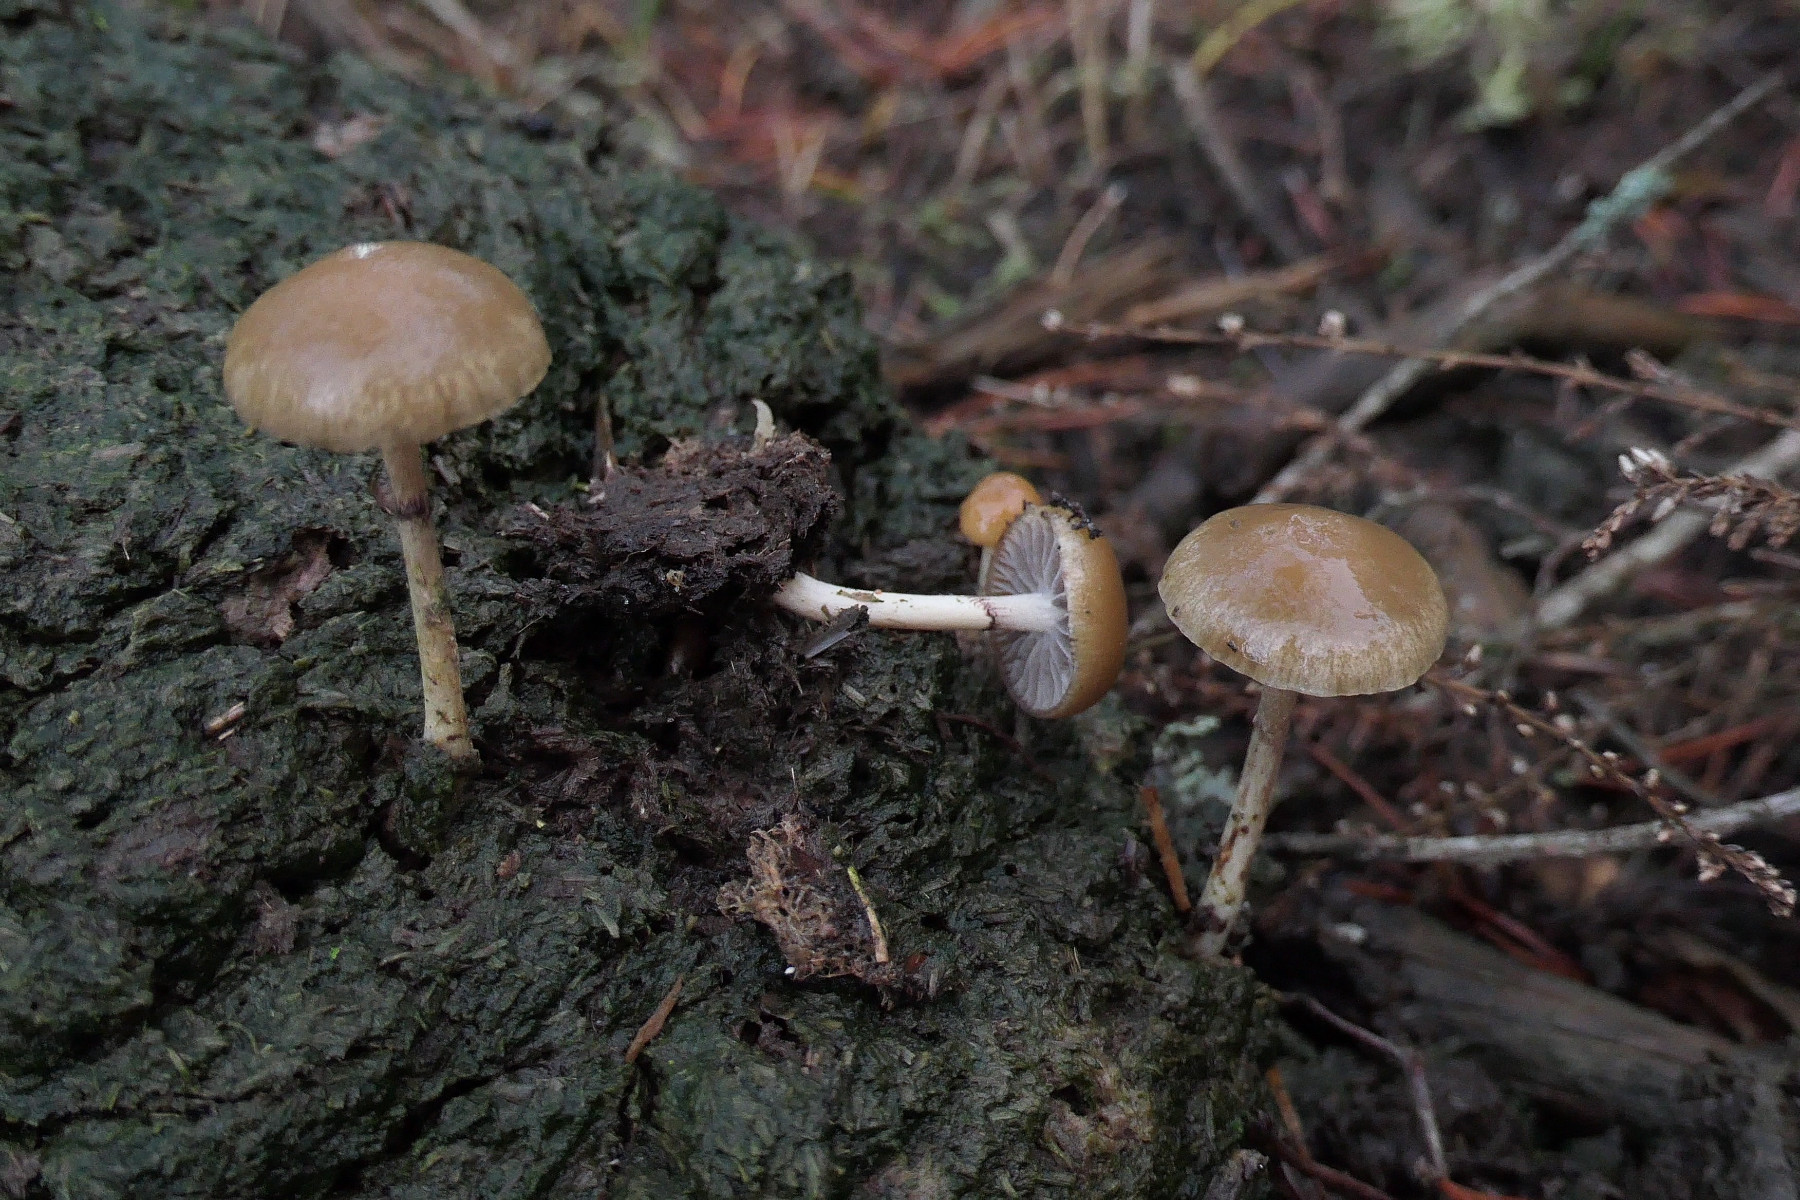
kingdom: Fungi
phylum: Basidiomycota
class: Agaricomycetes
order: Agaricales
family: Strophariaceae
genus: Protostropharia
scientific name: Protostropharia semiglobata
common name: halvkugleformet bredblad
